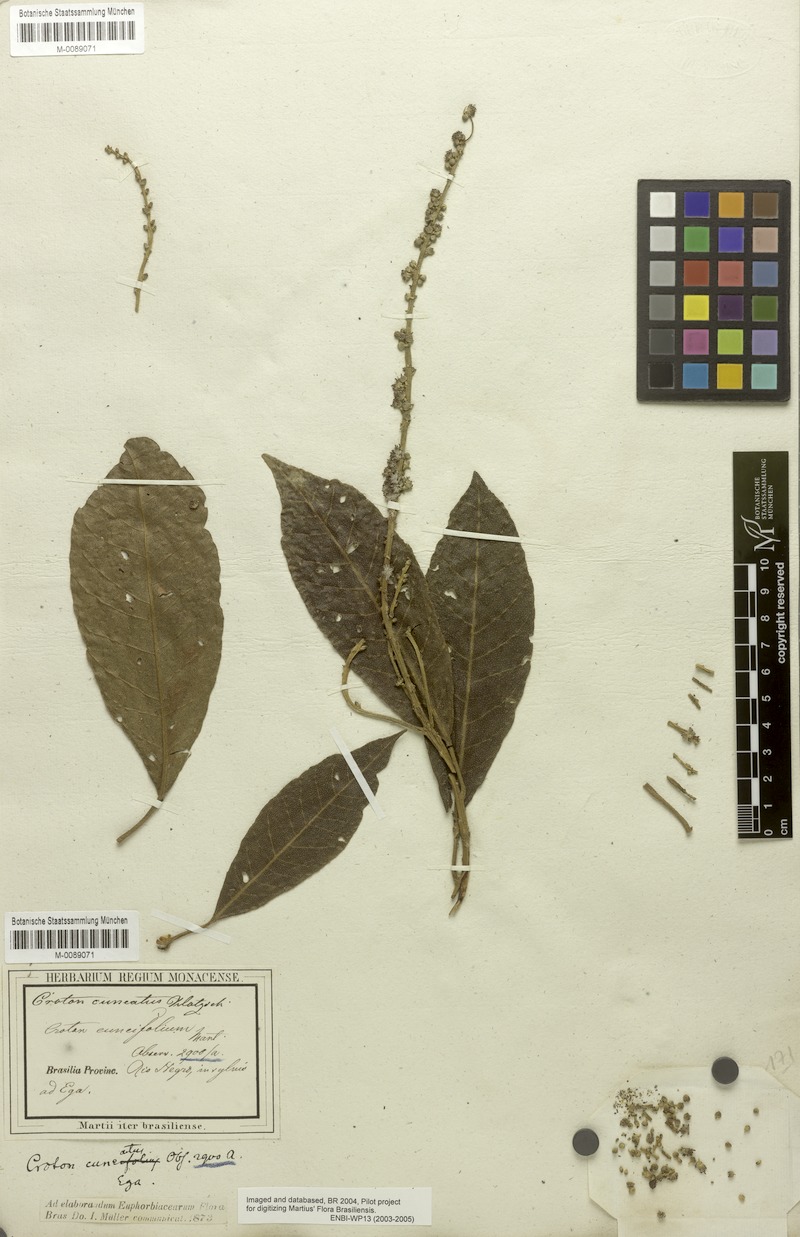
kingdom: Plantae
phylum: Tracheophyta
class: Magnoliopsida
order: Malpighiales
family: Euphorbiaceae
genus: Croton
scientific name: Croton cuneatus
